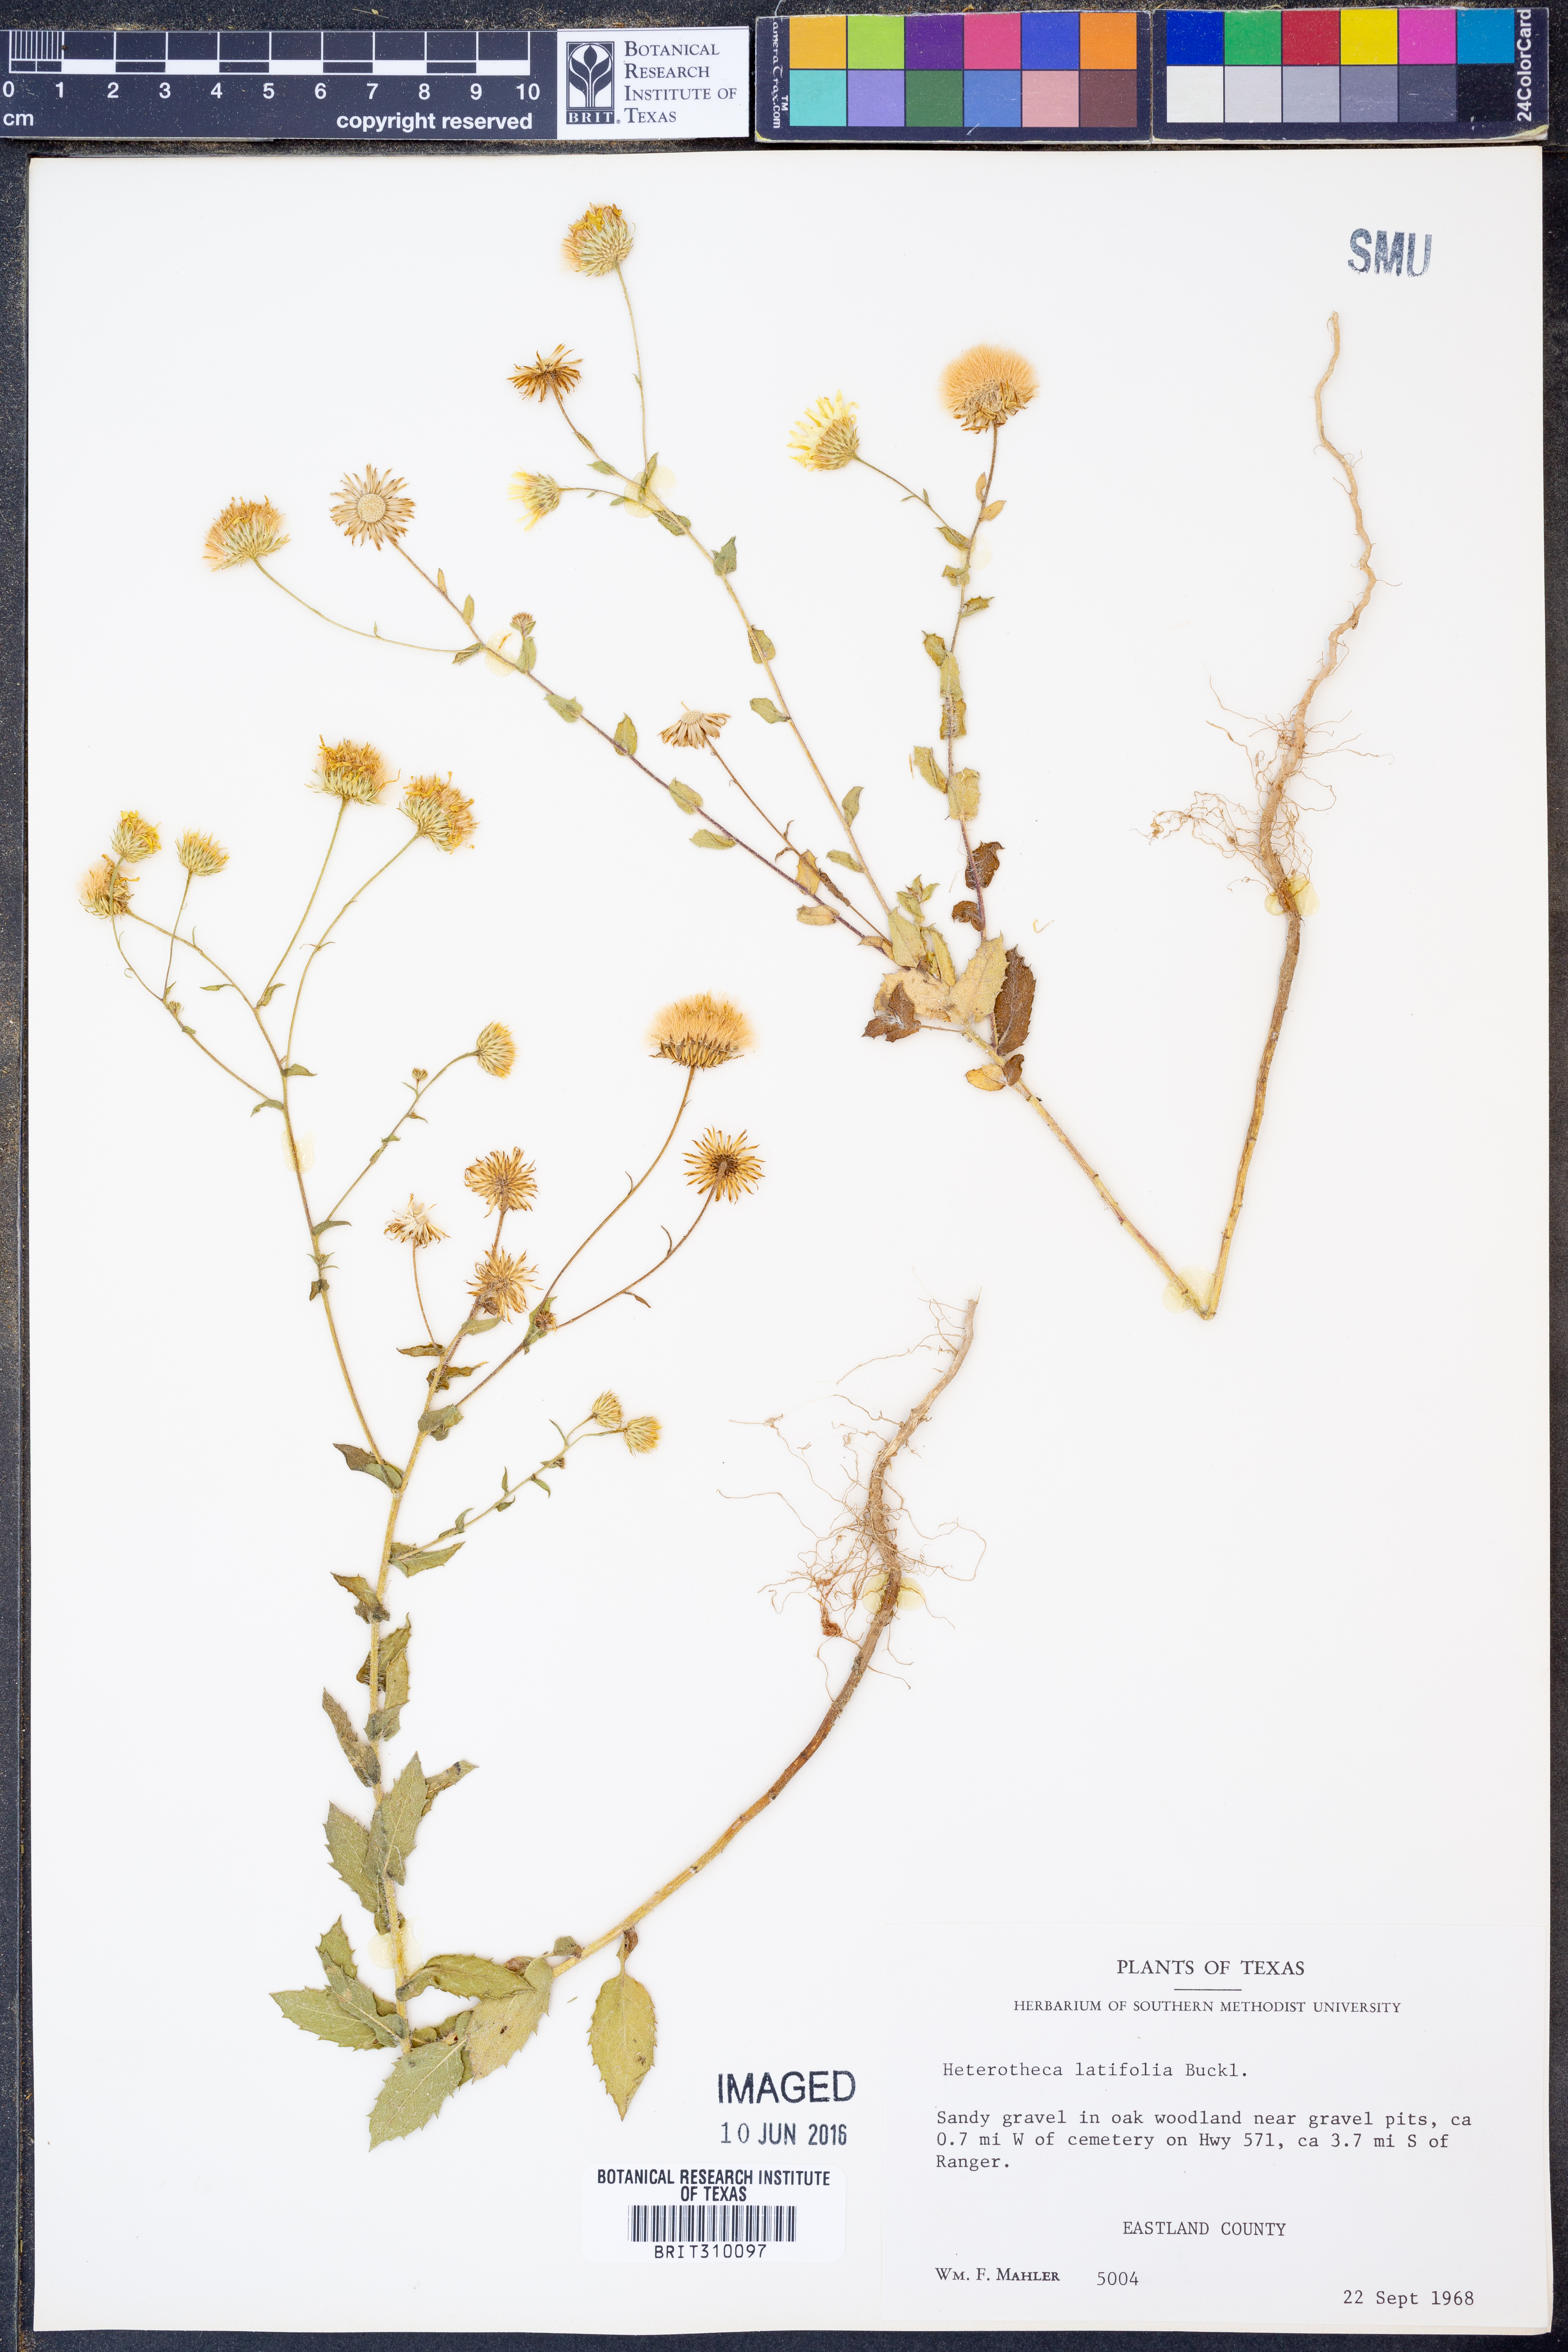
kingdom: Plantae
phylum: Tracheophyta
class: Magnoliopsida
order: Asterales
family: Asteraceae
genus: Heterotheca
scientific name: Heterotheca subaxillaris
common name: Camphorweed
